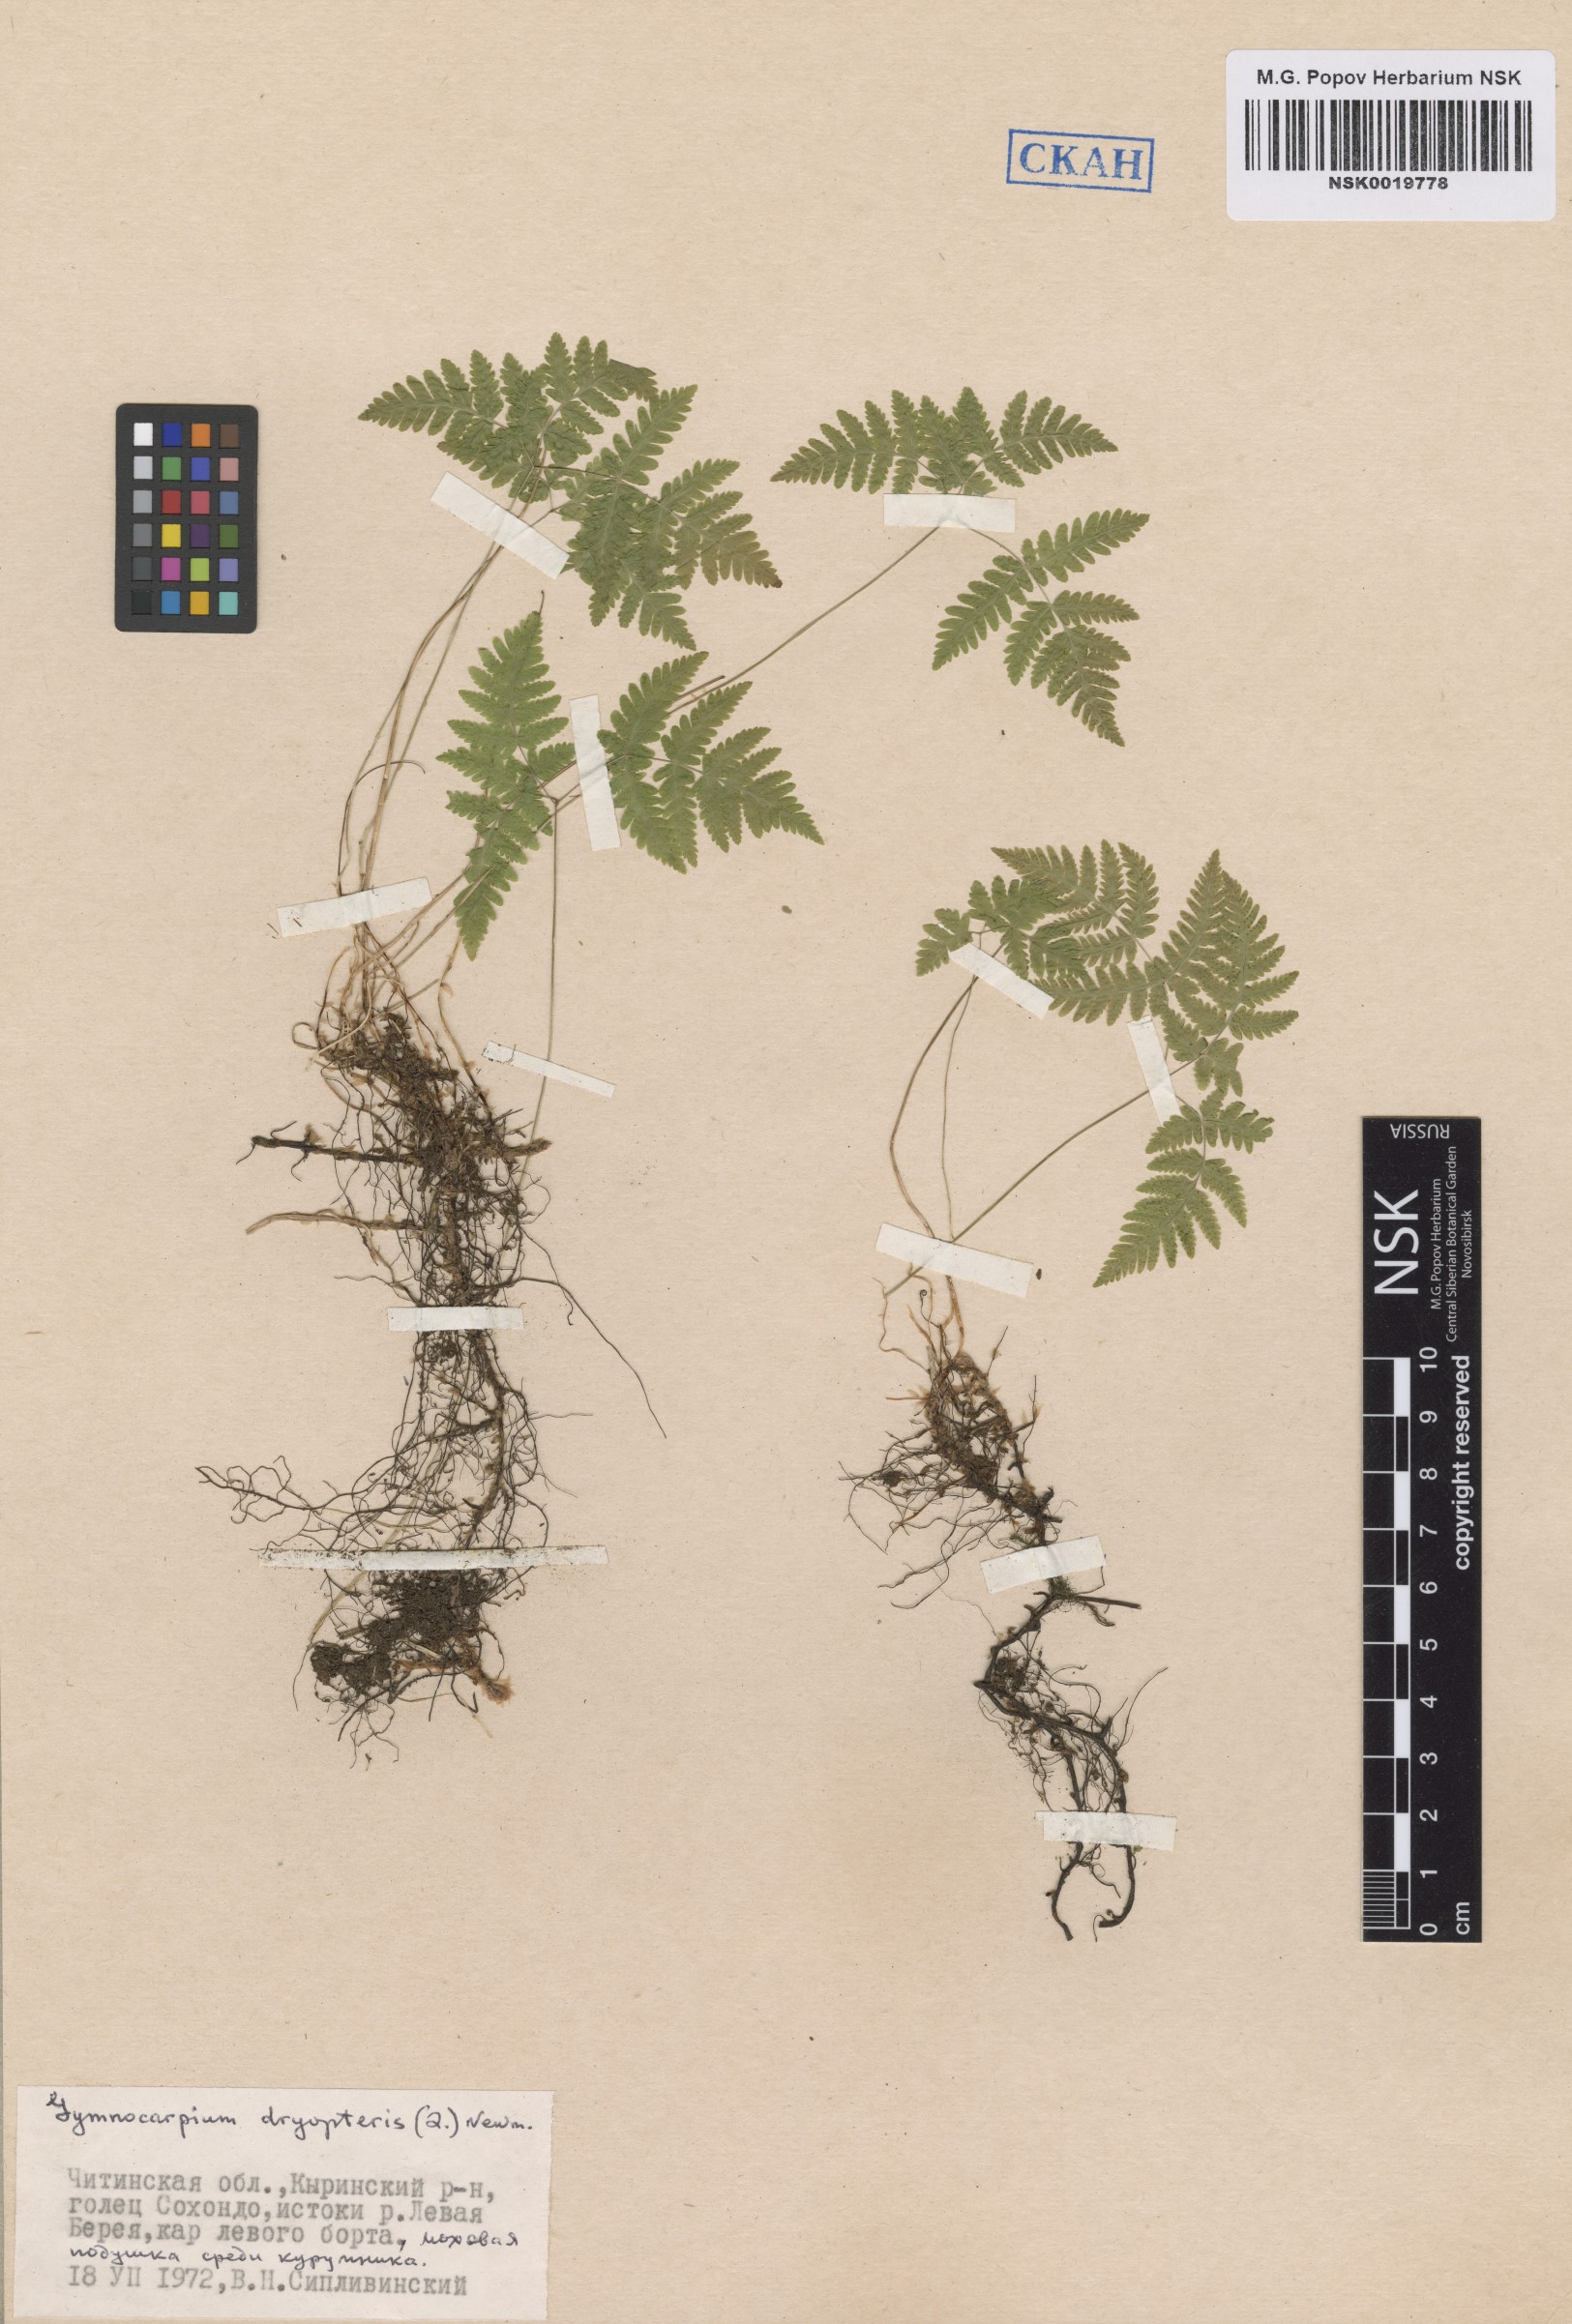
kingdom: Plantae
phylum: Tracheophyta
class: Polypodiopsida
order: Polypodiales
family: Cystopteridaceae
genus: Gymnocarpium
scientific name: Gymnocarpium dryopteris
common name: Oak fern
